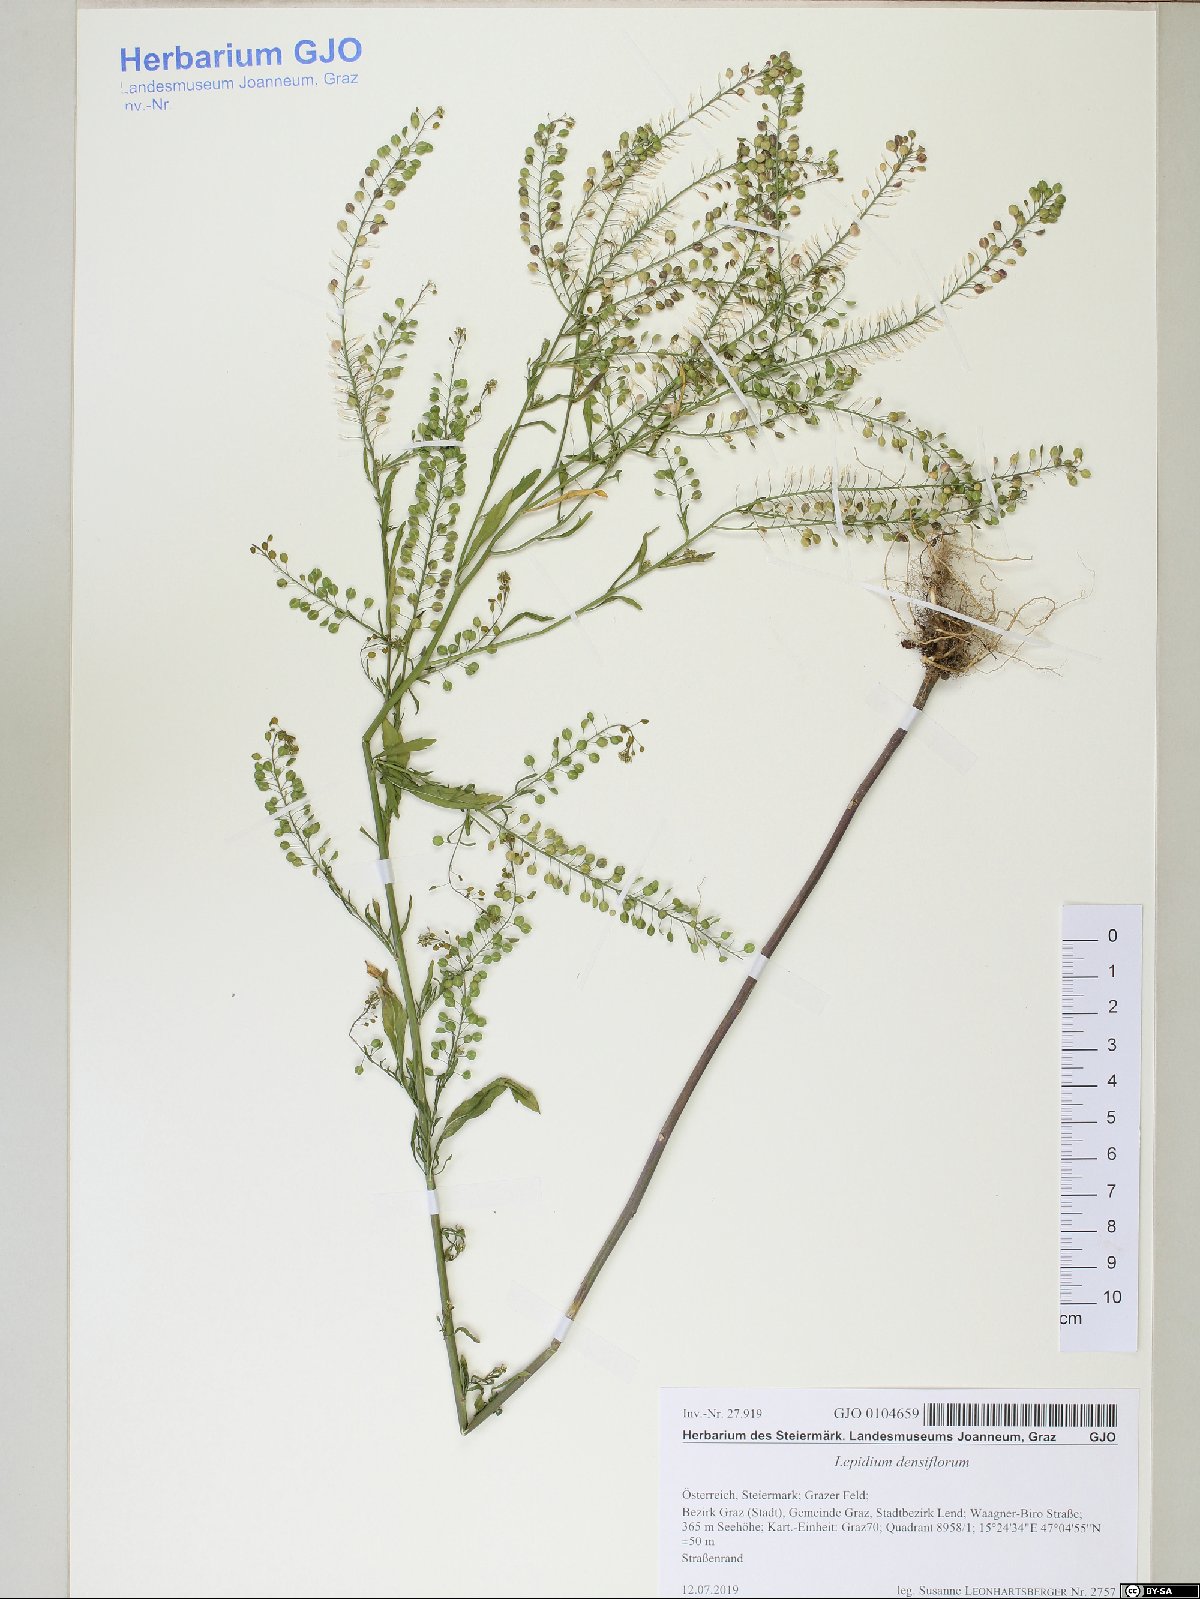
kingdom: Plantae
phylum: Tracheophyta
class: Magnoliopsida
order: Brassicales
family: Brassicaceae
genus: Lepidium
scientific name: Lepidium densiflorum
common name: Miner's pepperwort
